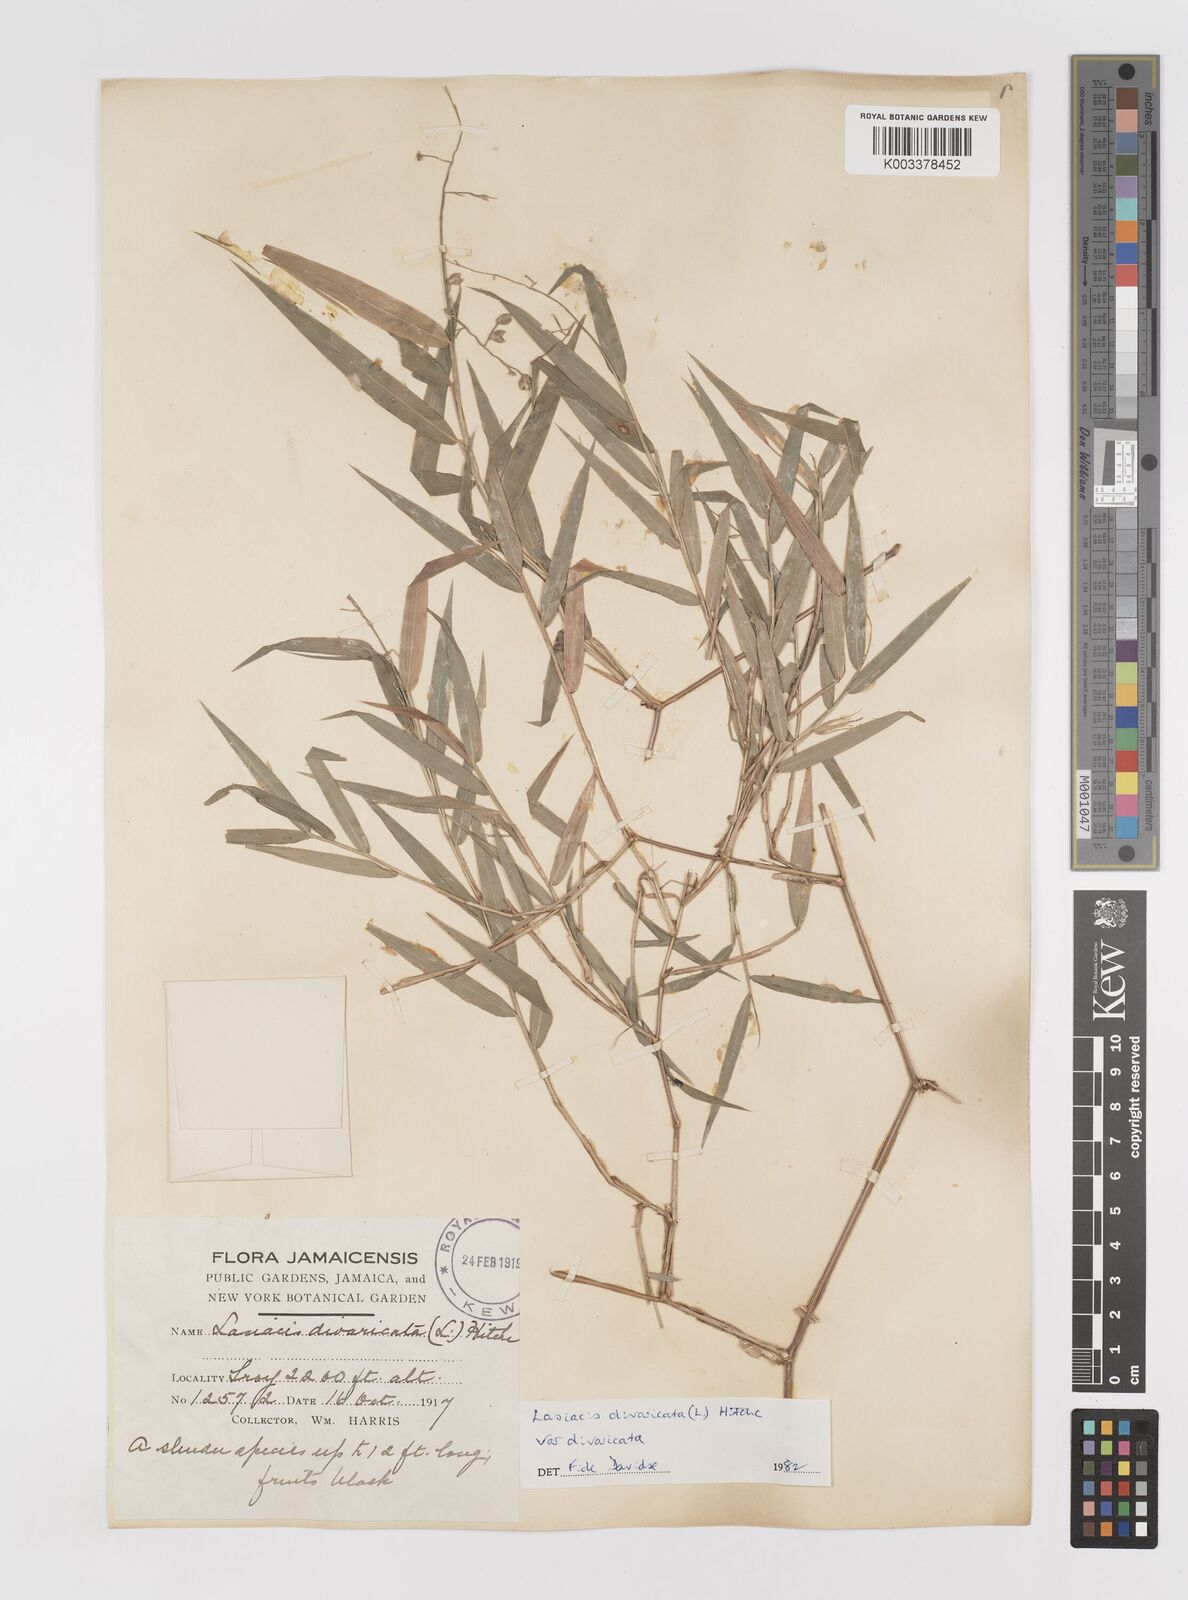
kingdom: Plantae
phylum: Tracheophyta
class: Liliopsida
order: Poales
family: Poaceae
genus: Lasiacis
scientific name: Lasiacis divaricata
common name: Smallcane
